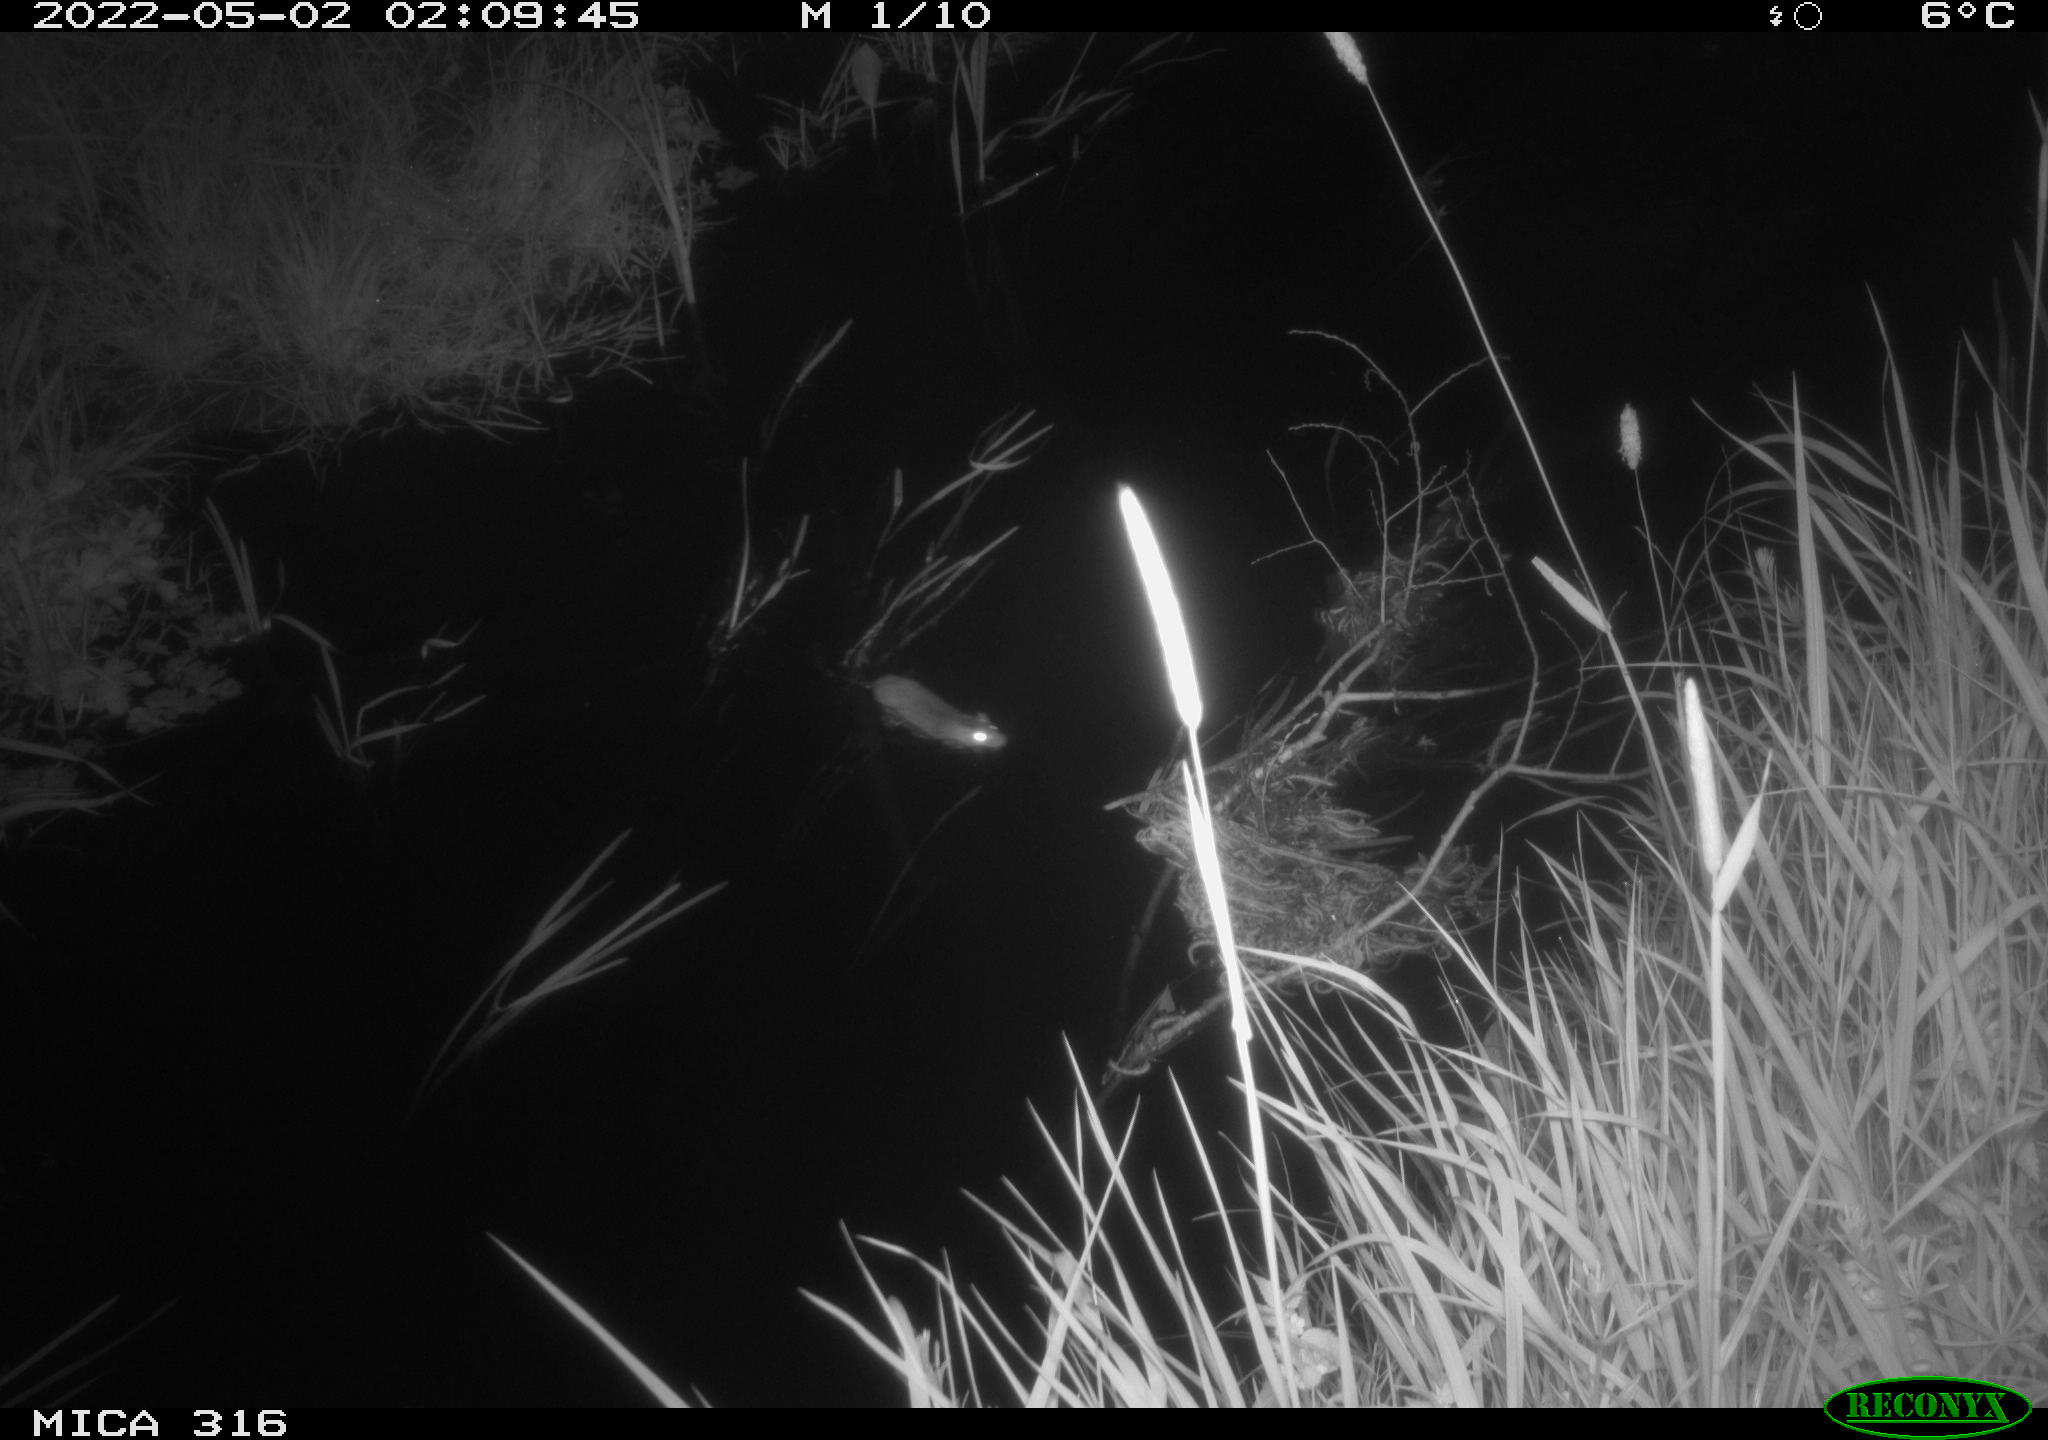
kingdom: Animalia
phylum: Chordata
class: Mammalia
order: Rodentia
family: Muridae
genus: Rattus
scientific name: Rattus norvegicus
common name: Brown rat
